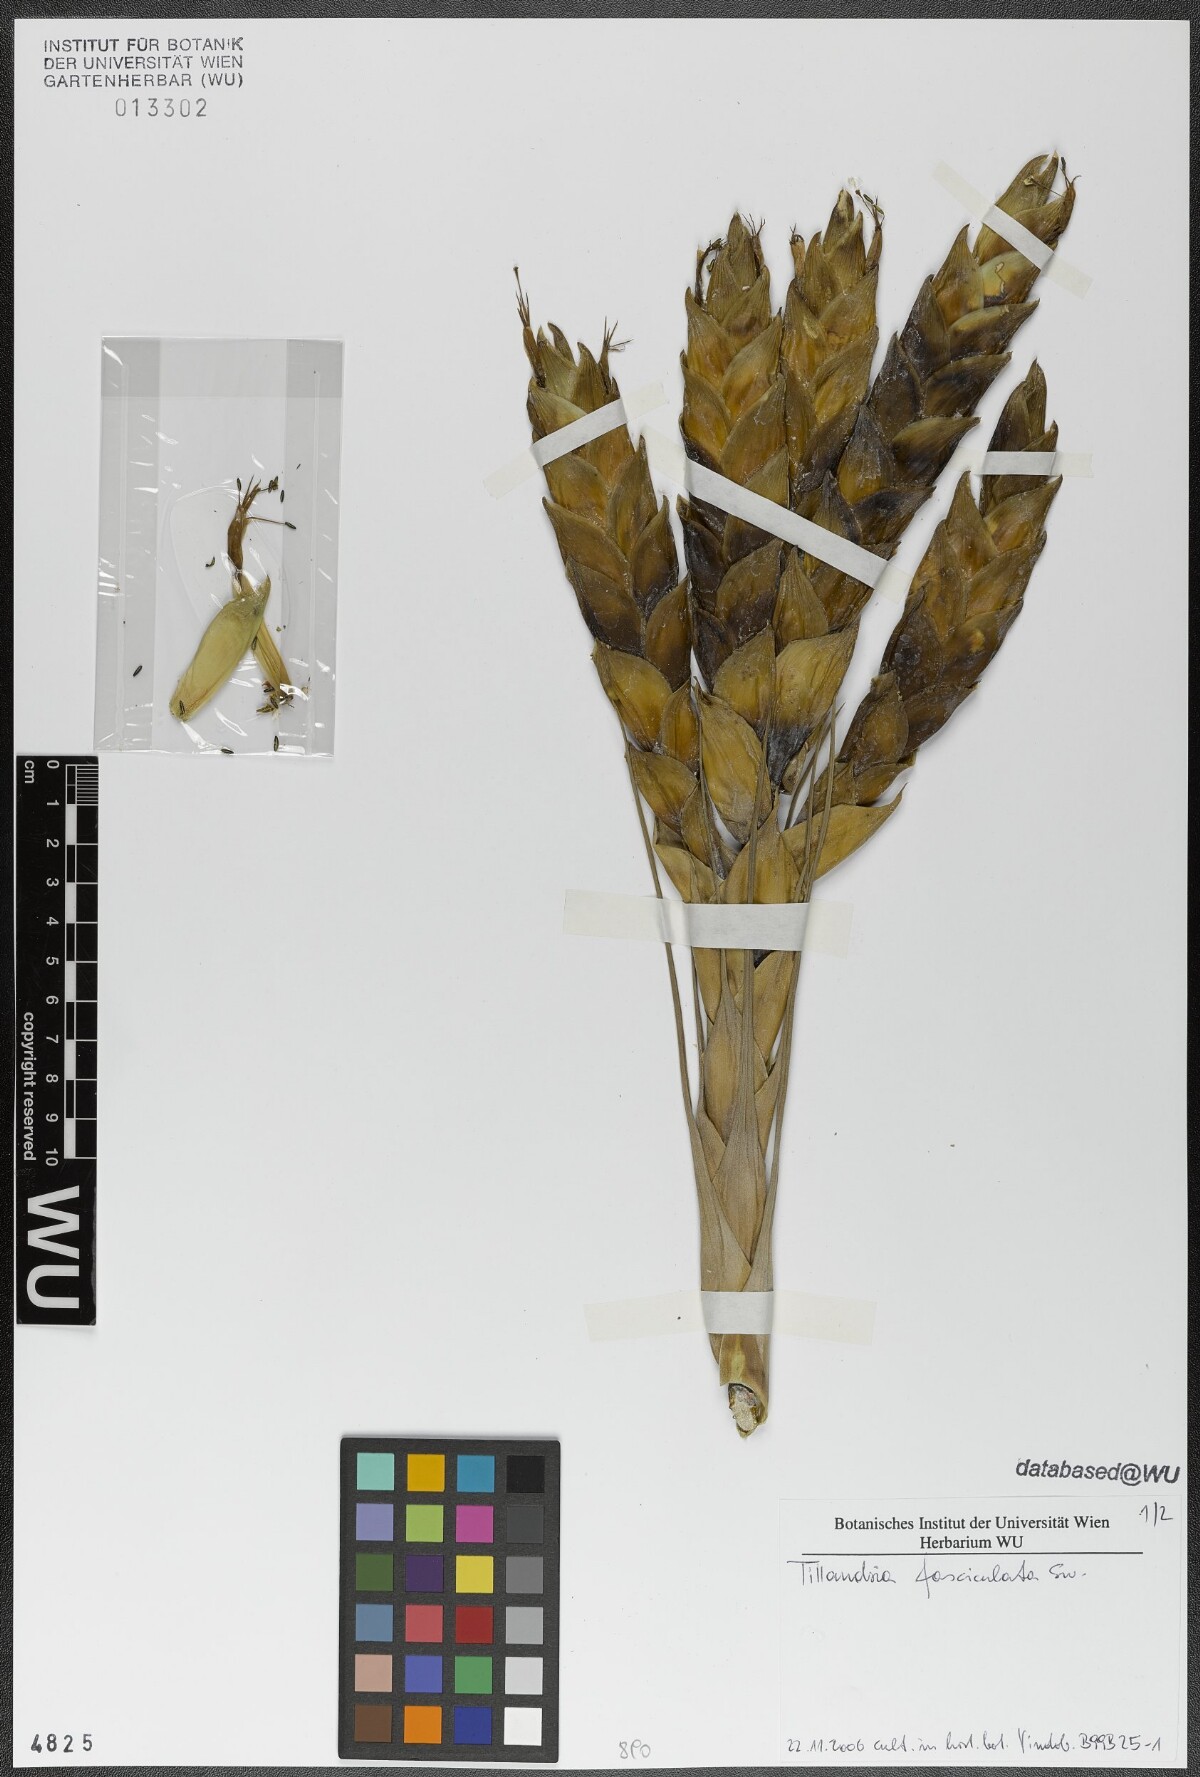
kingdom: Plantae
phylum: Tracheophyta
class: Liliopsida
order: Poales
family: Bromeliaceae
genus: Tillandsia
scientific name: Tillandsia fasciculata
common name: Giant airplant
